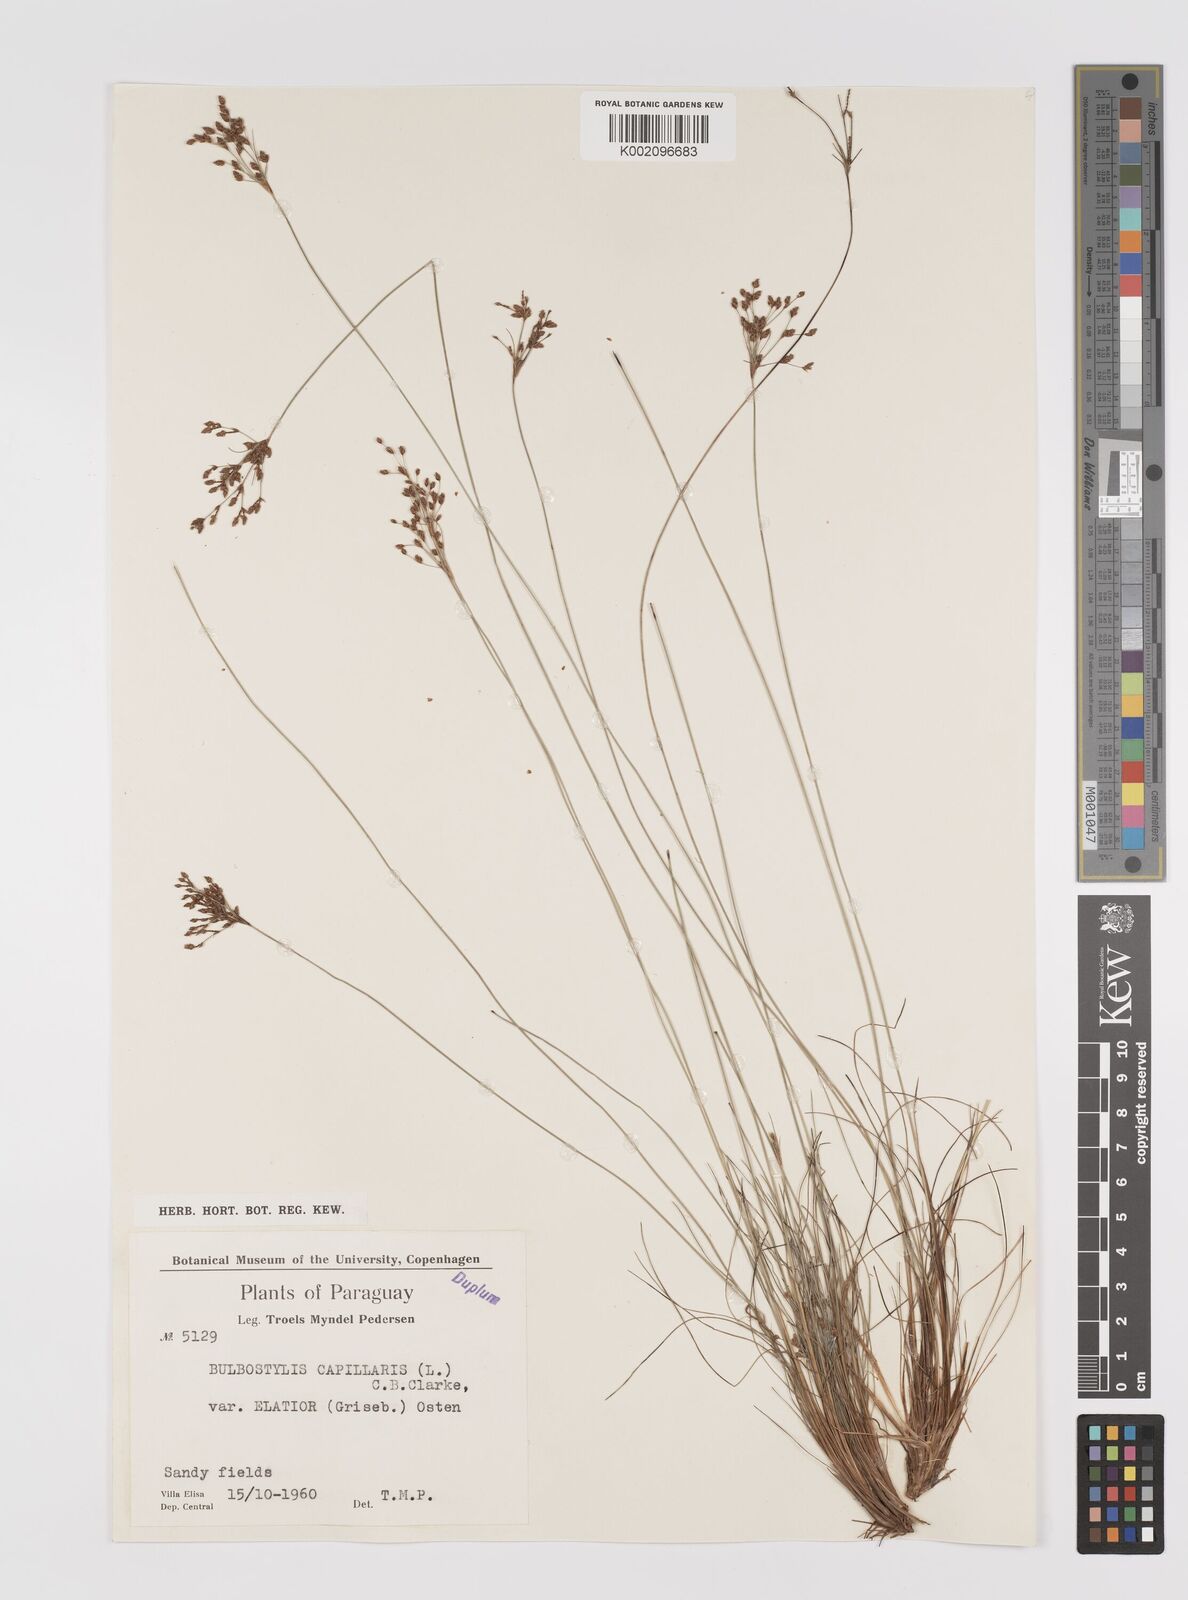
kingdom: Plantae
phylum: Tracheophyta
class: Liliopsida
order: Poales
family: Cyperaceae
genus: Bulbostylis
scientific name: Bulbostylis communis
